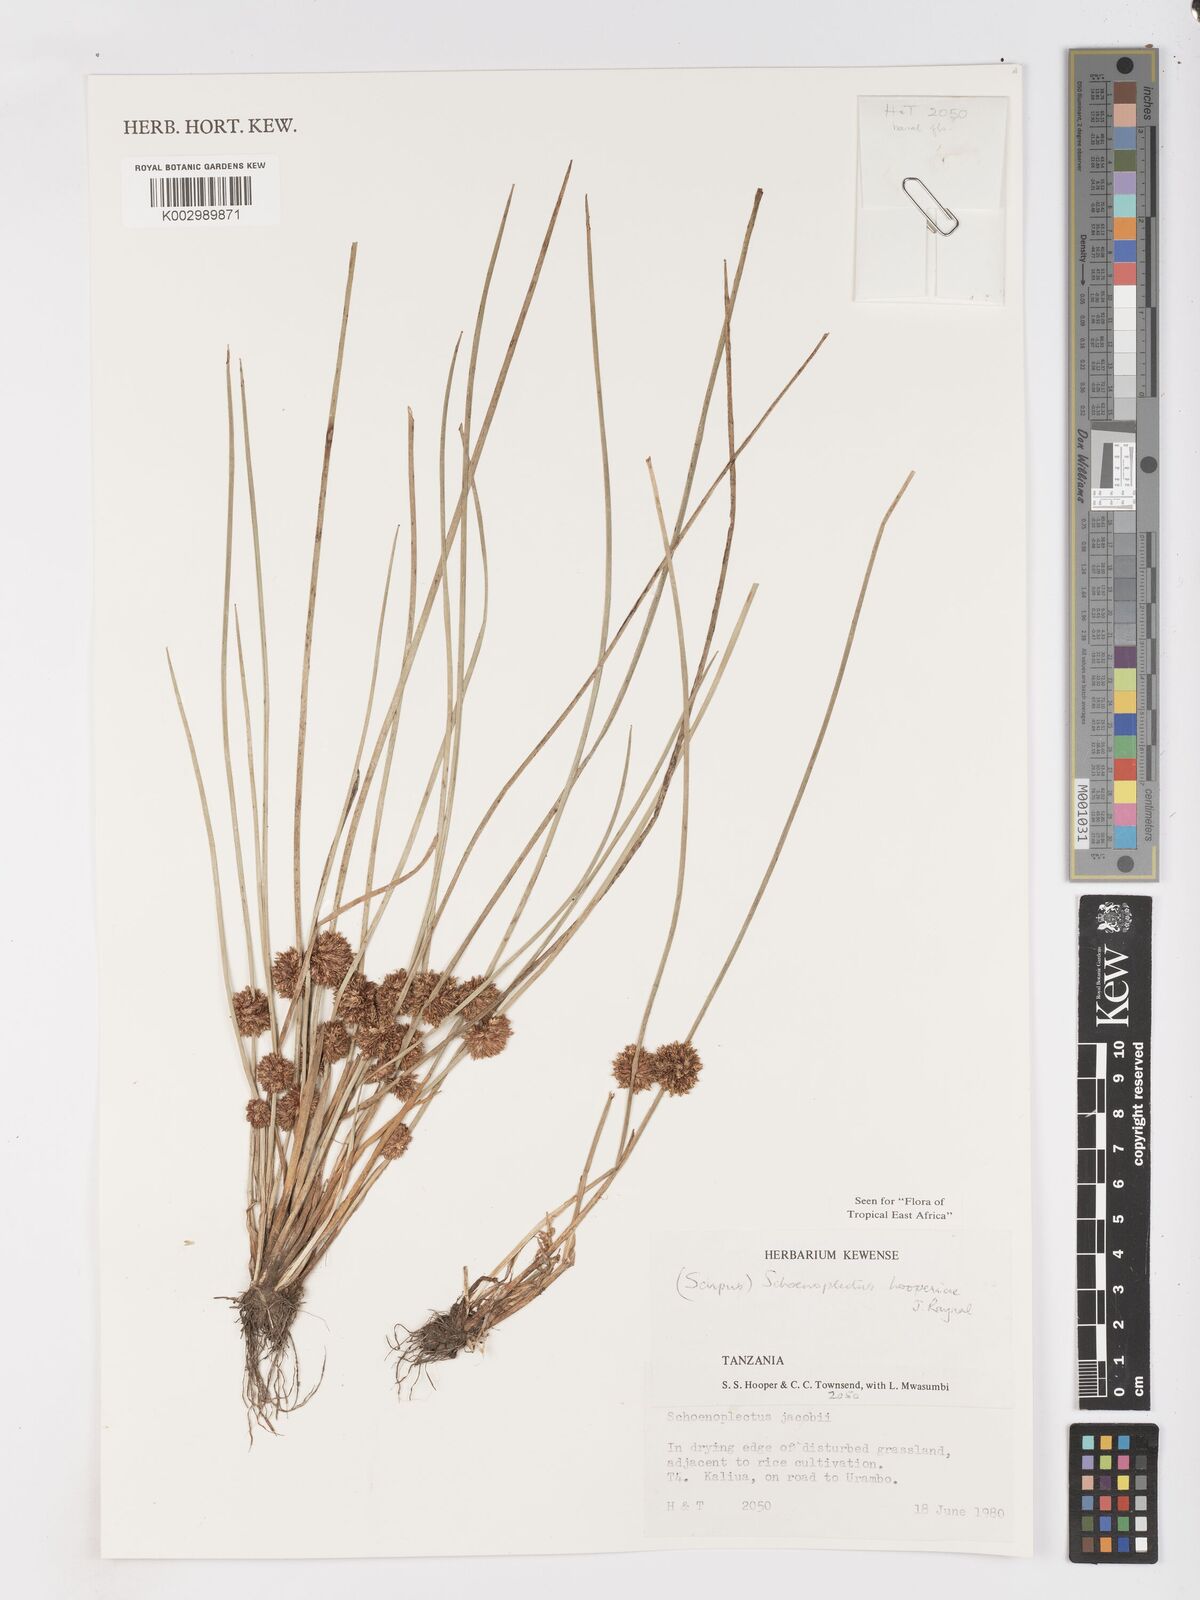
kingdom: Plantae
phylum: Tracheophyta
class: Liliopsida
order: Poales
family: Cyperaceae
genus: Schoenoplectiella
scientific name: Schoenoplectiella hooperae
